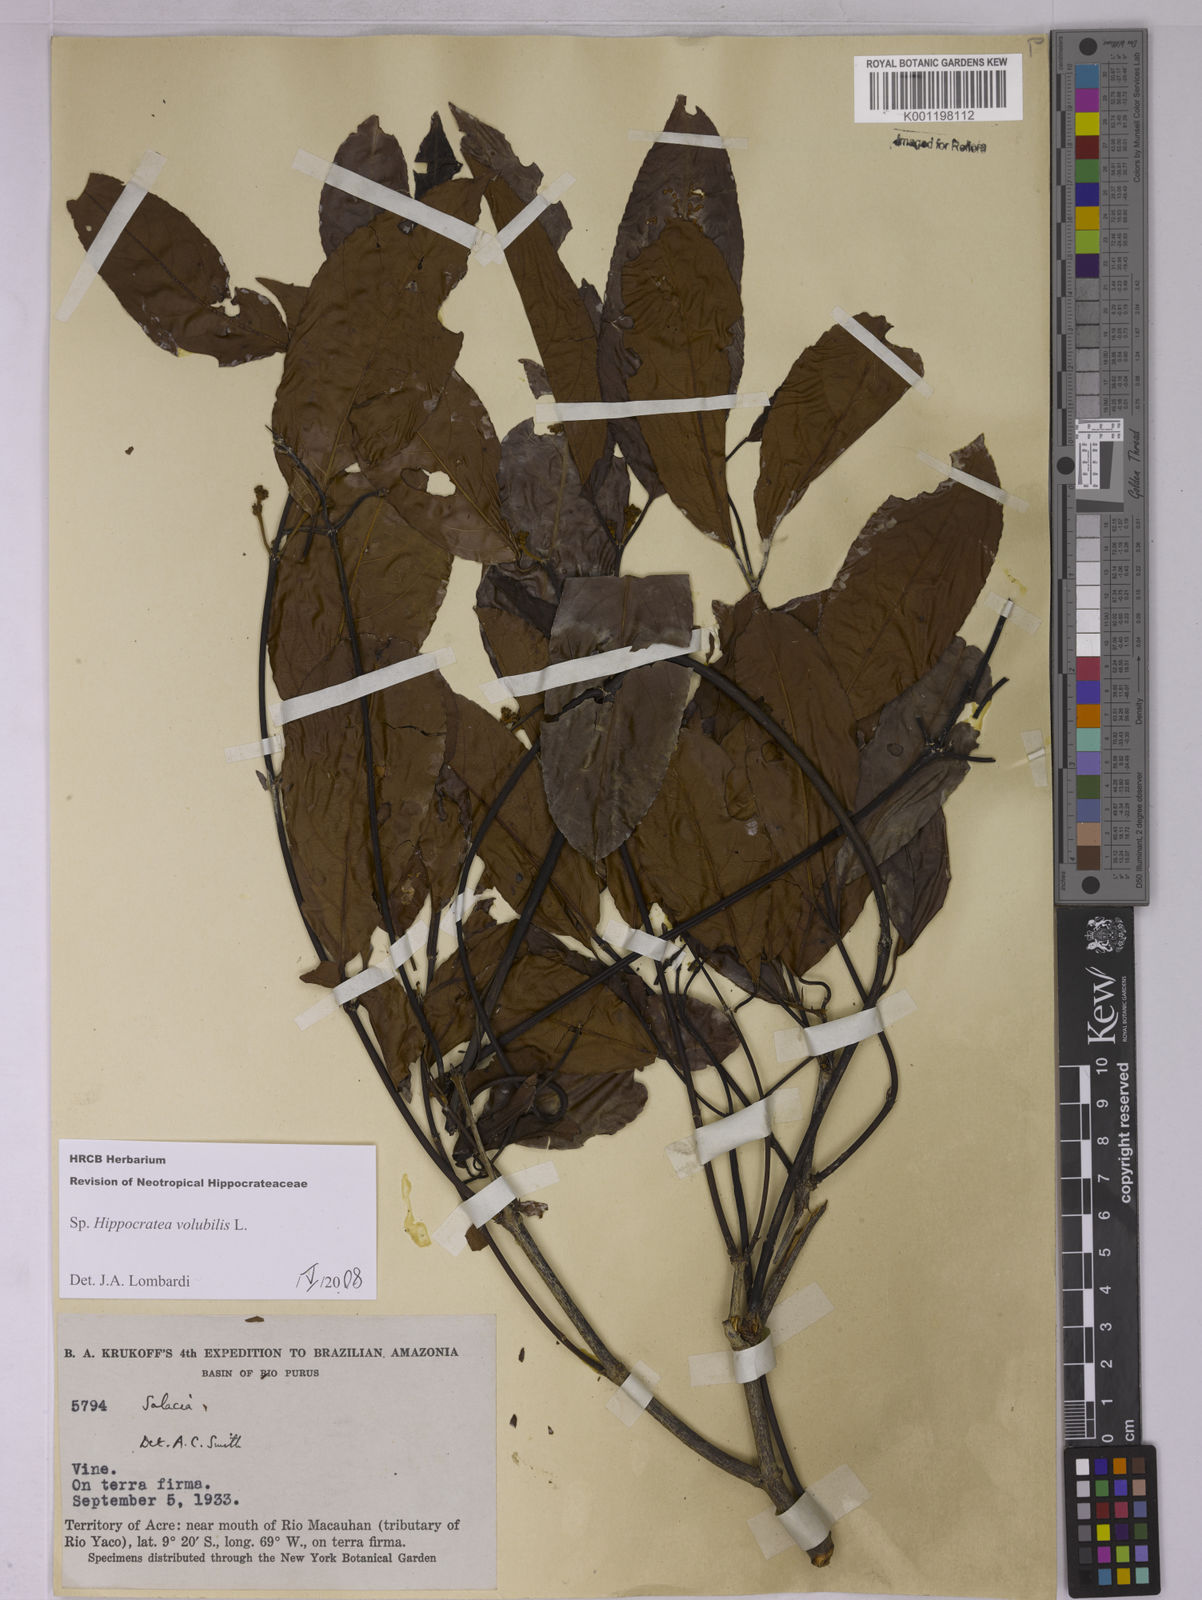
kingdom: Plantae
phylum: Tracheophyta
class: Magnoliopsida
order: Celastrales
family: Celastraceae
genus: Cheiloclinium
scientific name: Cheiloclinium
